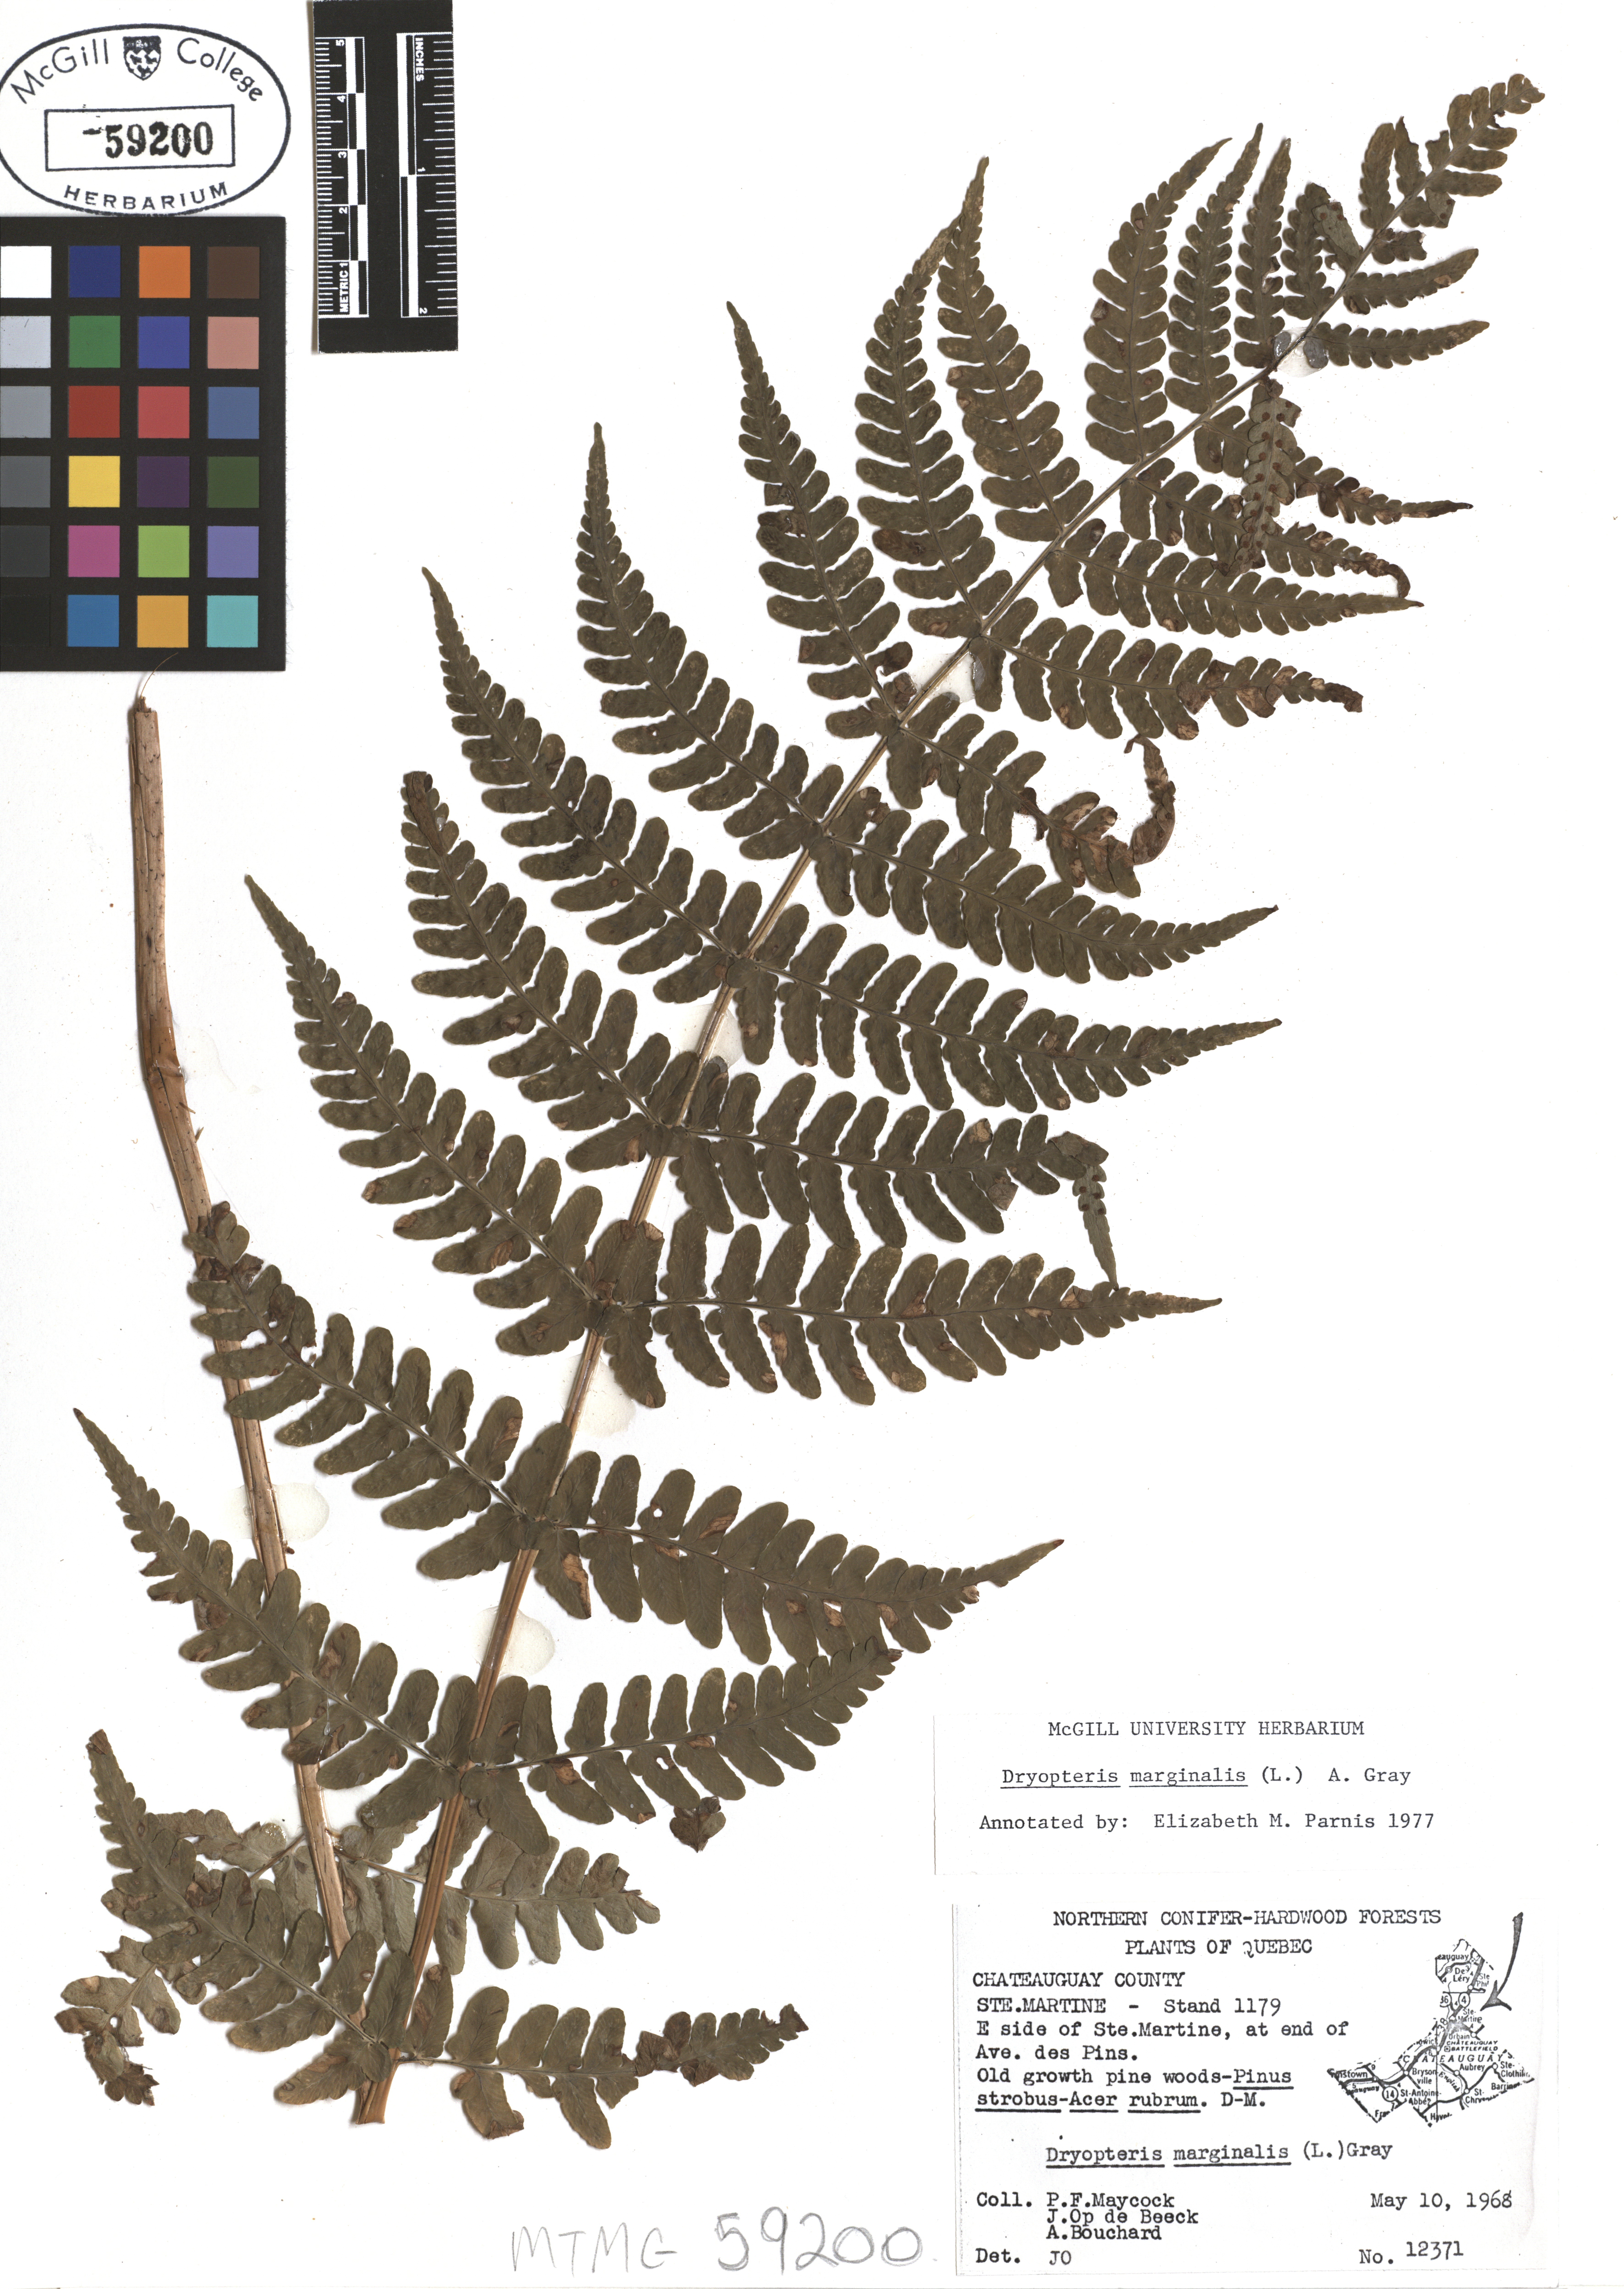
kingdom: Plantae
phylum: Tracheophyta
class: Polypodiopsida
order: Polypodiales
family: Dryopteridaceae
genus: Dryopteris
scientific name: Dryopteris marginalis
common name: Marginal wood fern
